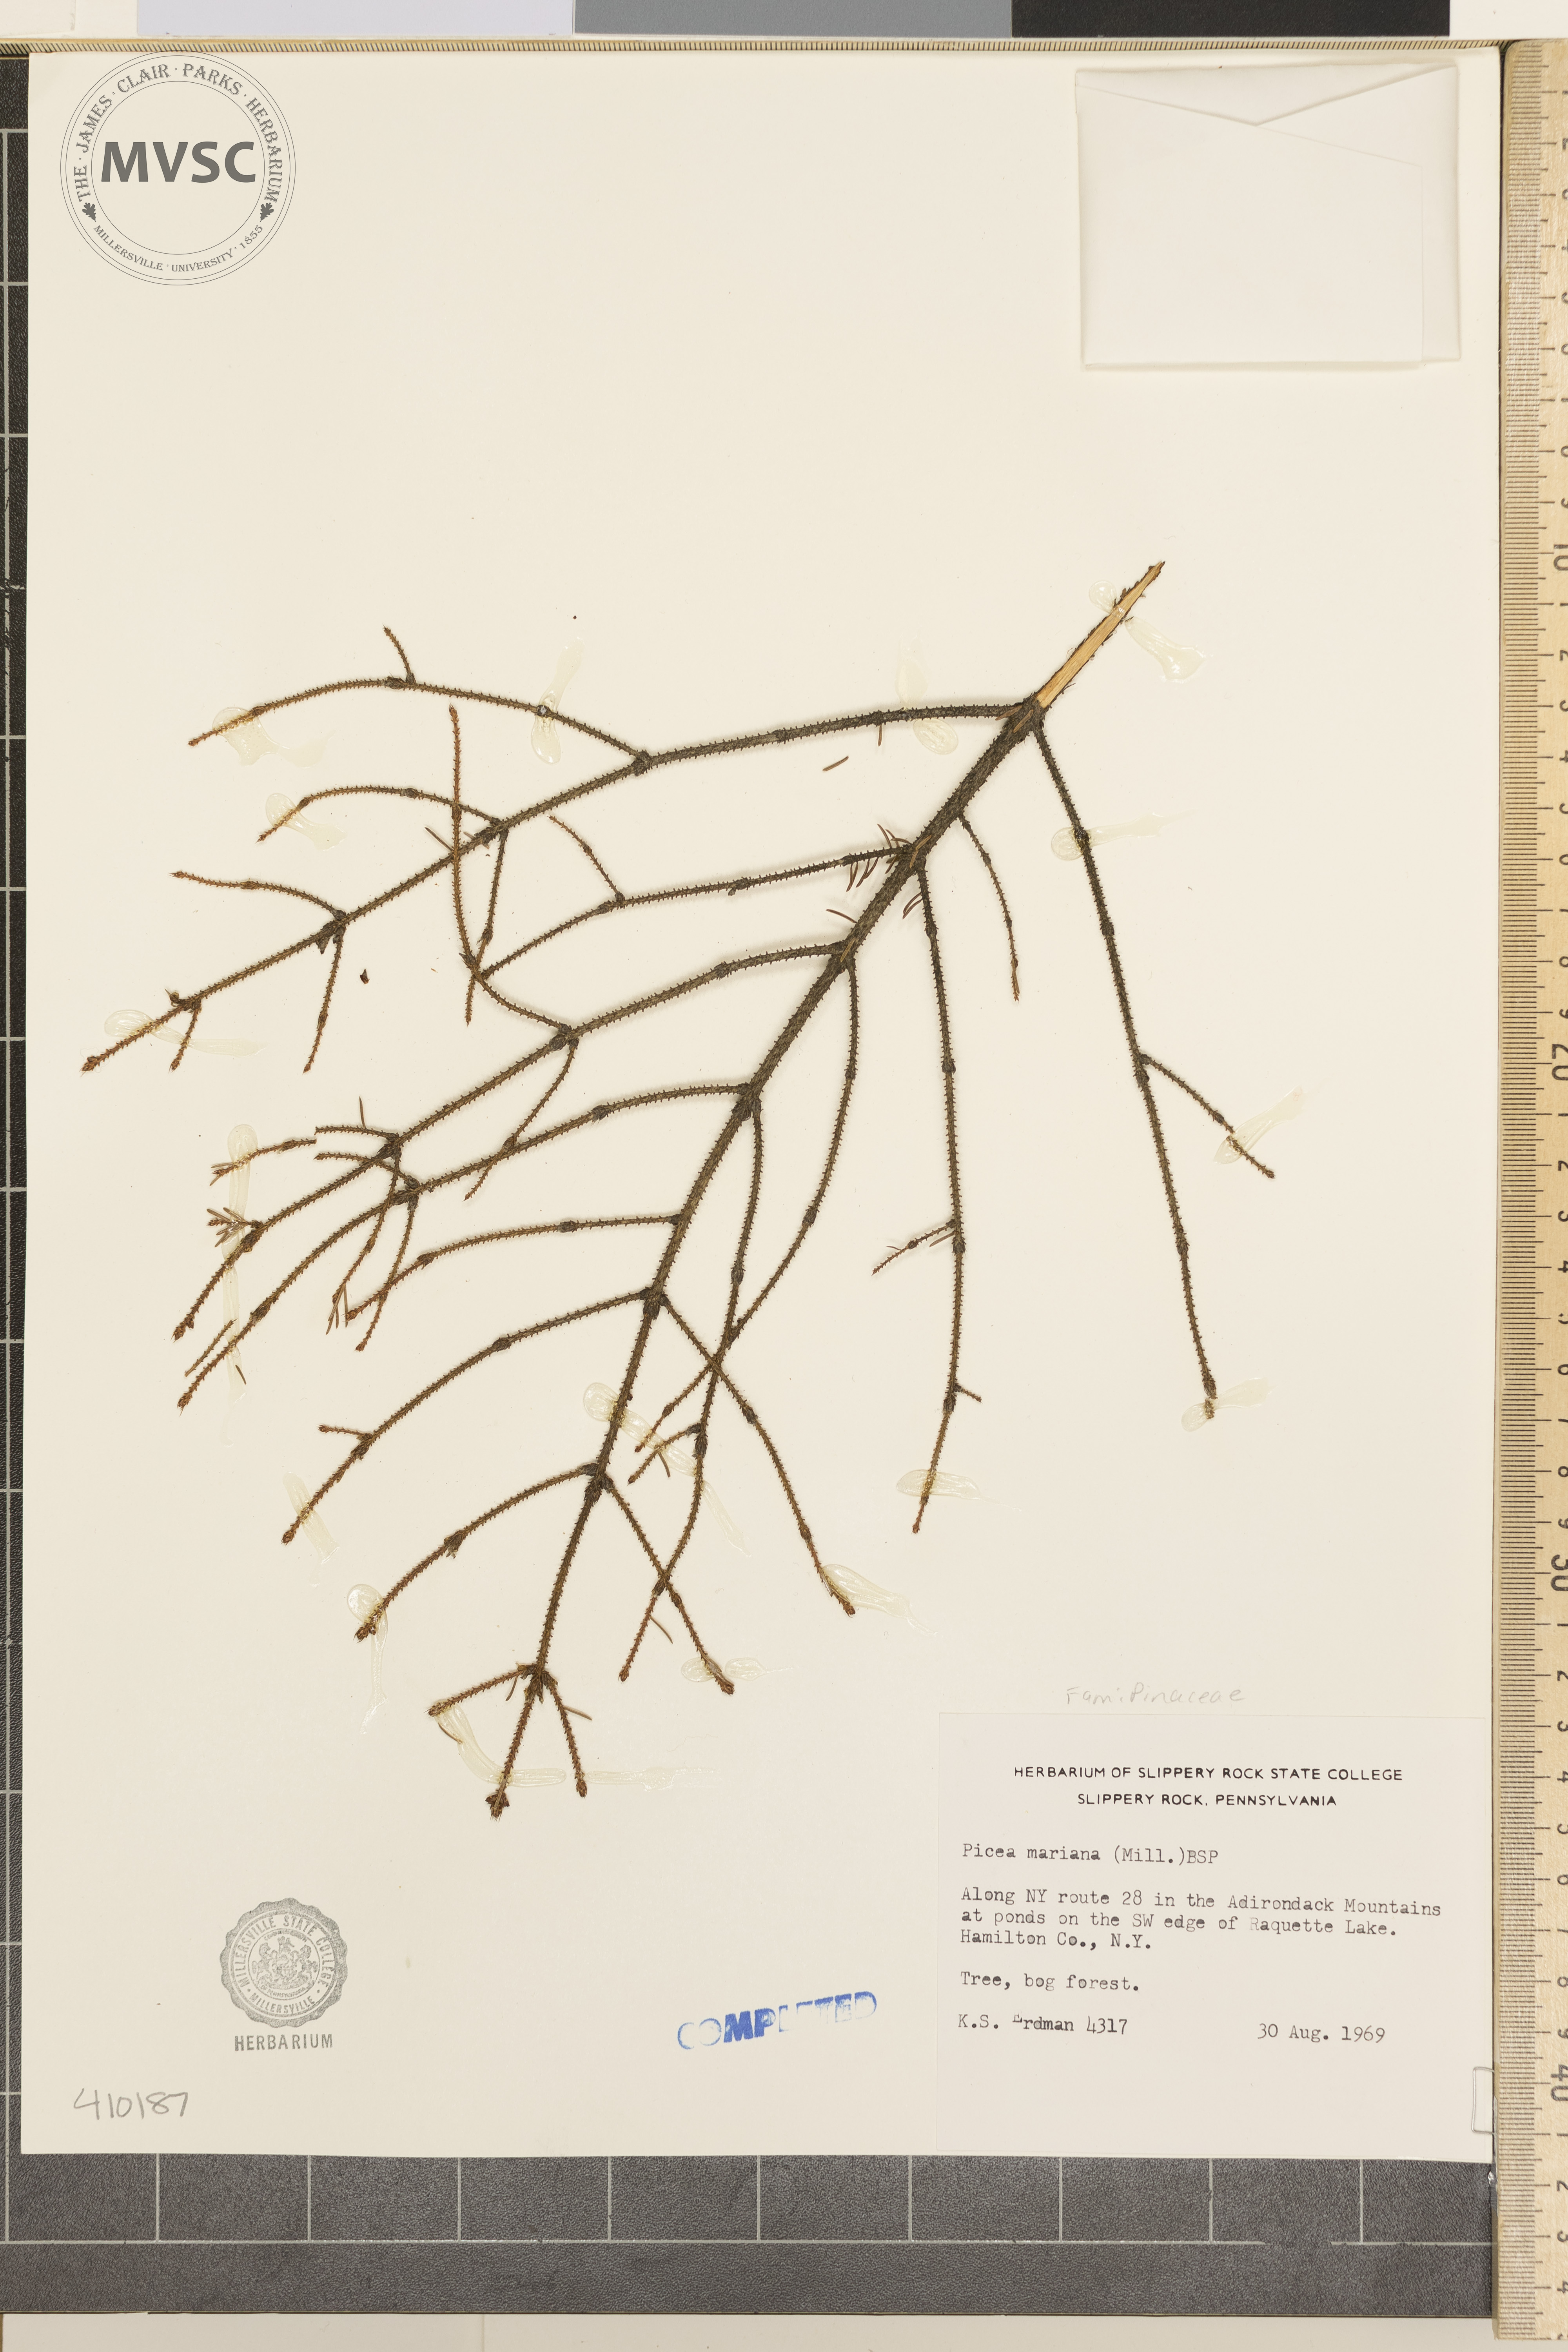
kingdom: Plantae
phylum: Tracheophyta
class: Pinopsida
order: Pinales
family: Pinaceae
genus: Picea
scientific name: Picea mariana
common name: Black spruce
